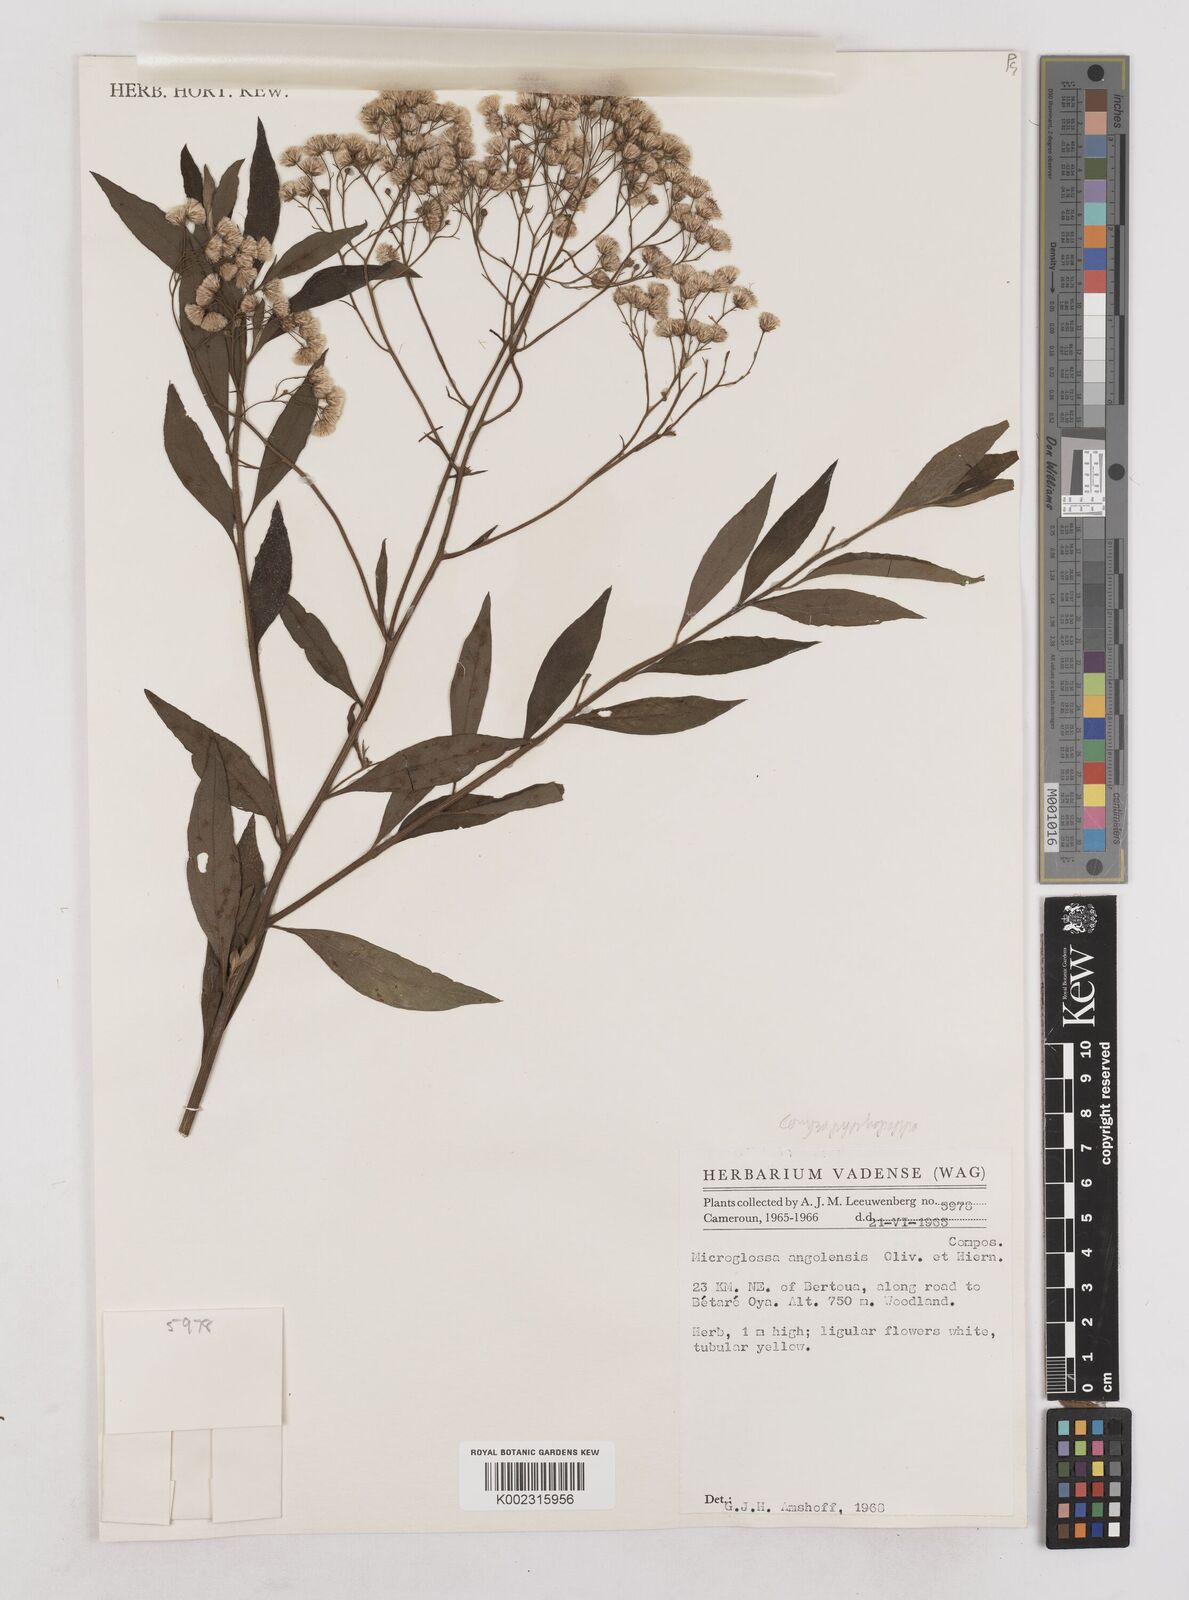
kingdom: Plantae
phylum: Tracheophyta
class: Magnoliopsida
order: Asterales
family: Asteraceae
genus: Microglossa
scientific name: Microglossa pyrrhopappa
